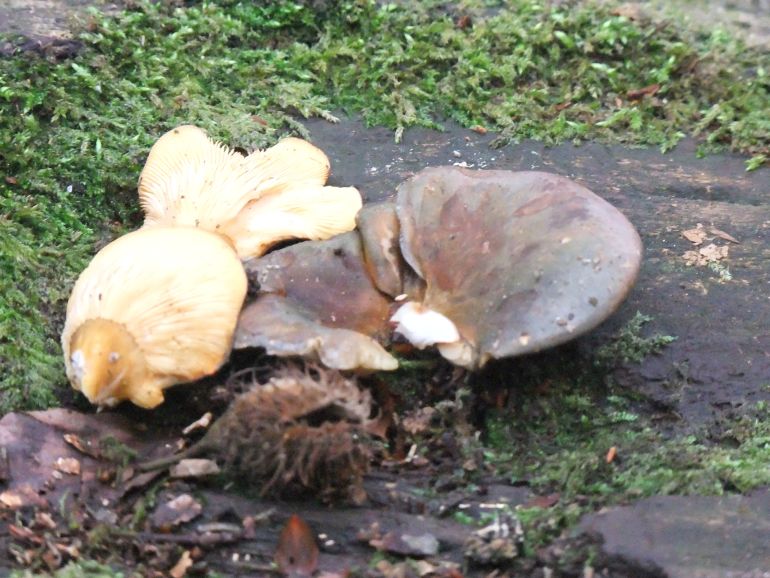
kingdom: Fungi
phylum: Basidiomycota
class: Agaricomycetes
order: Agaricales
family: Sarcomyxaceae
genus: Sarcomyxa
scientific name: Sarcomyxa serotina
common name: gummihat
